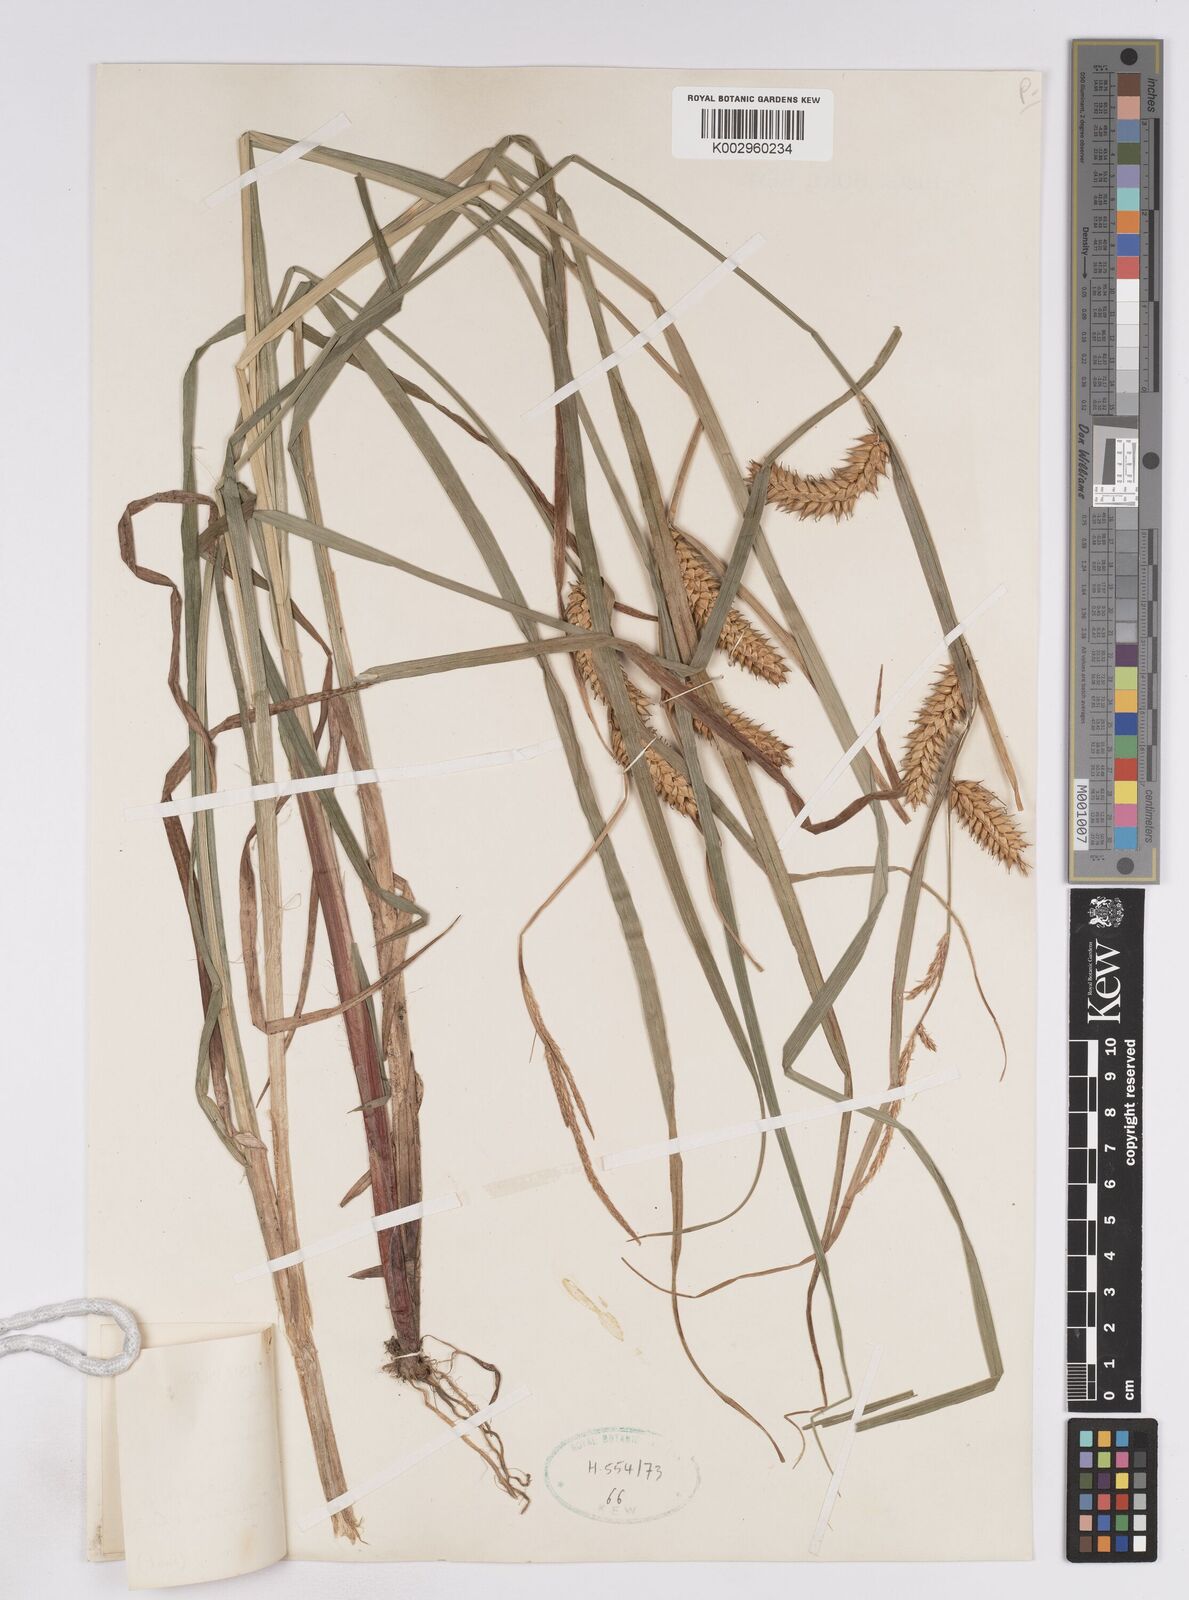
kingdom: Plantae
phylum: Tracheophyta
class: Liliopsida
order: Poales
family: Cyperaceae
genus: Carex
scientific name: Carex vesicaria
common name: Bladder-sedge
